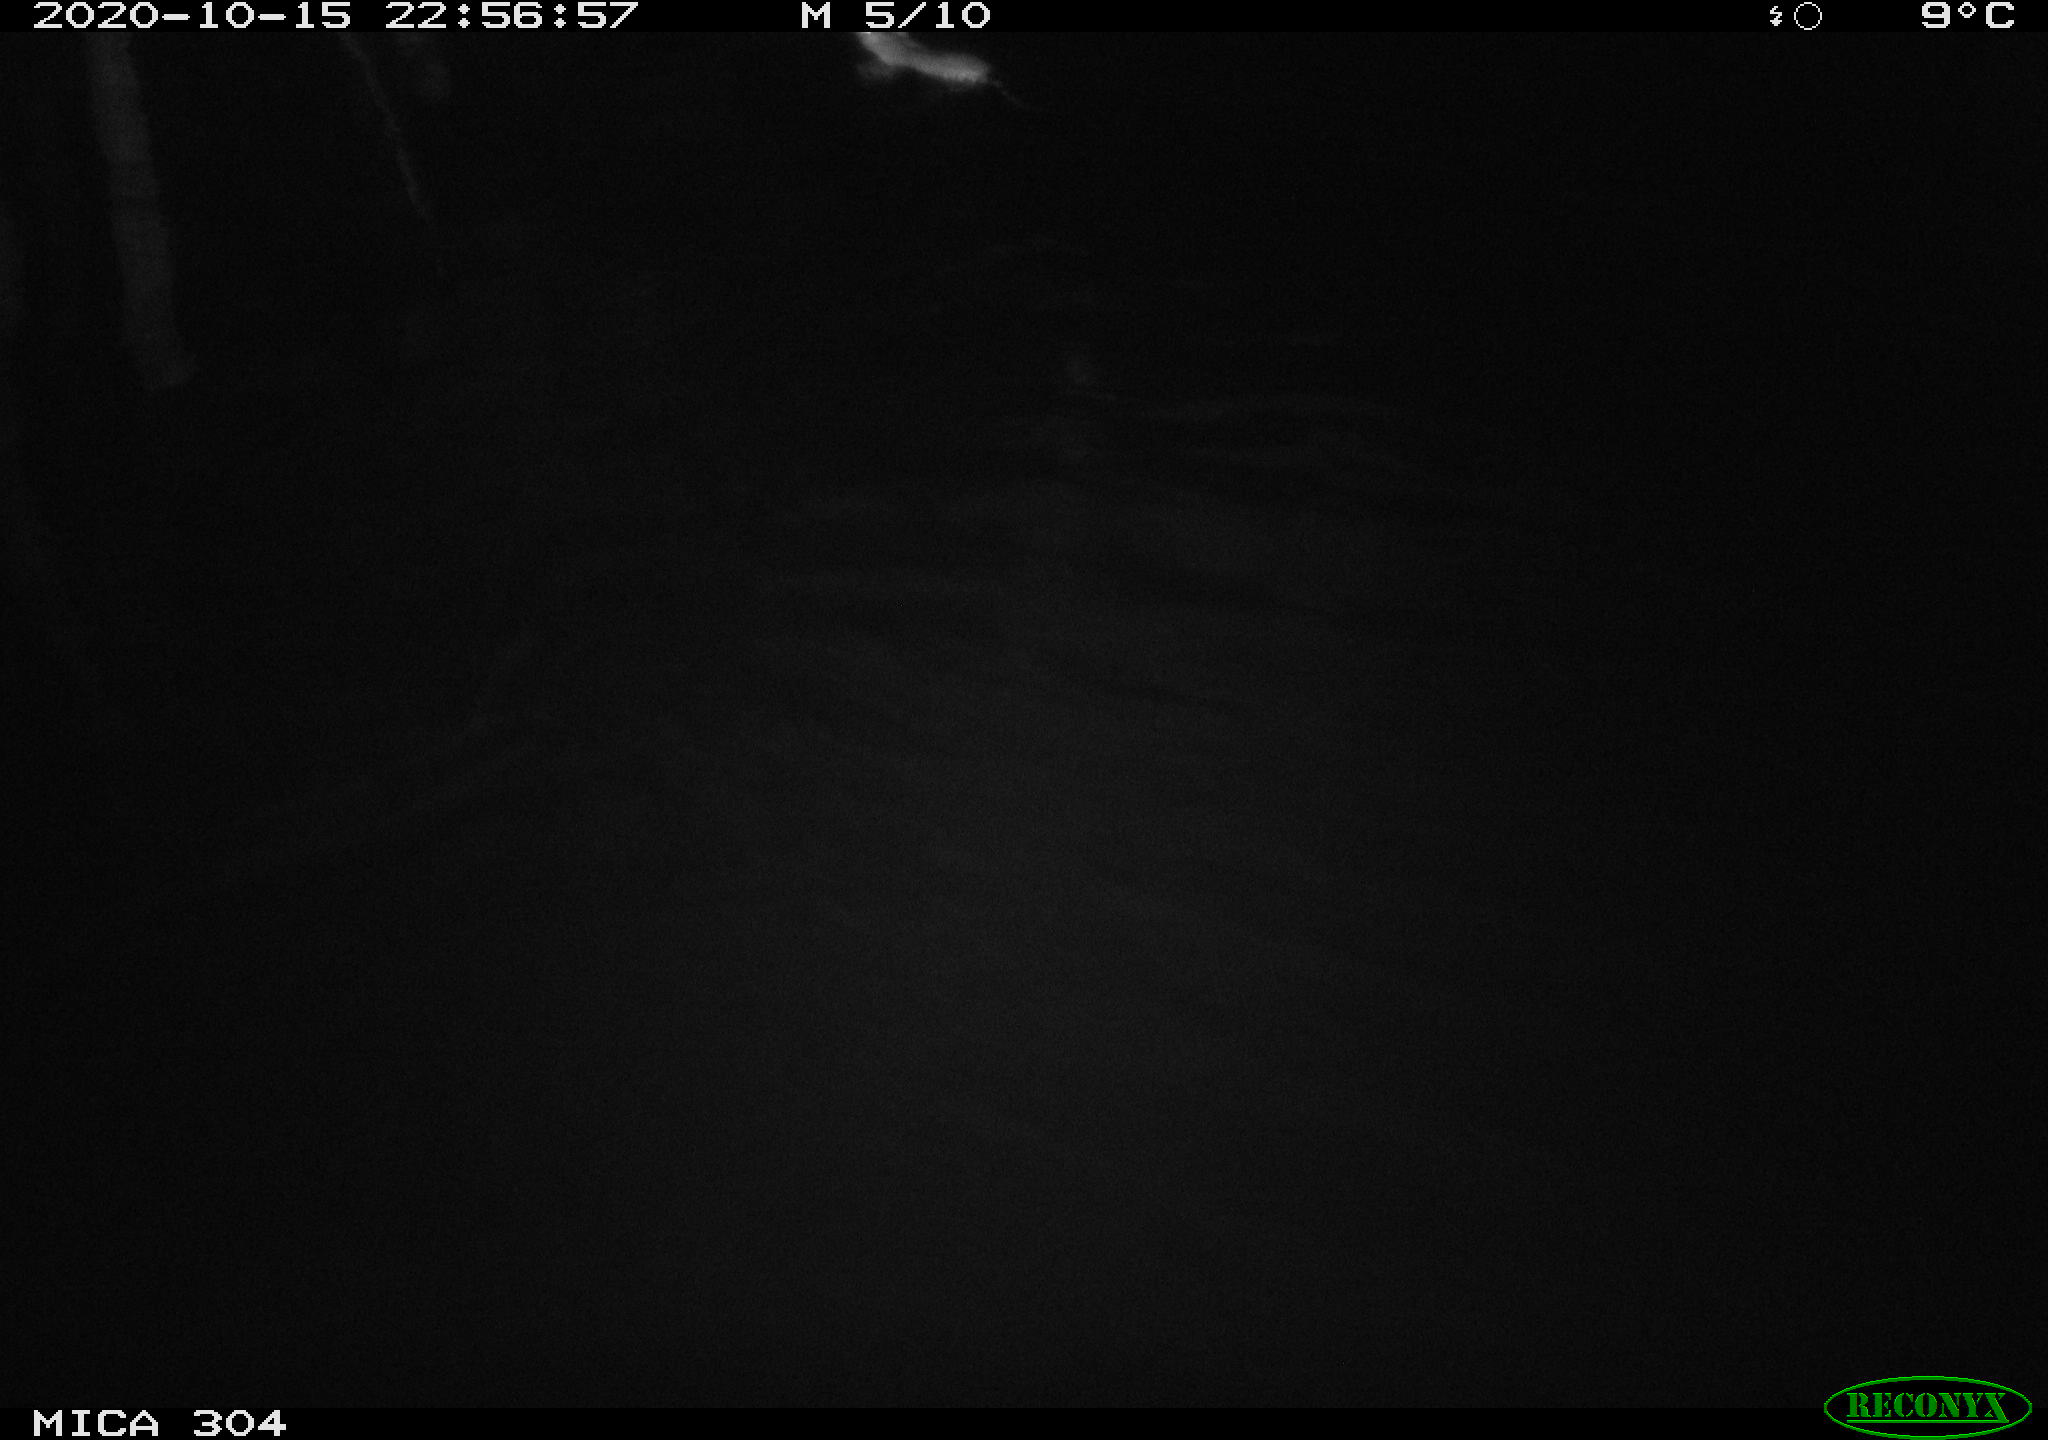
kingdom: Animalia
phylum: Chordata
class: Mammalia
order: Rodentia
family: Muridae
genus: Rattus
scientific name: Rattus norvegicus
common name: Brown rat
